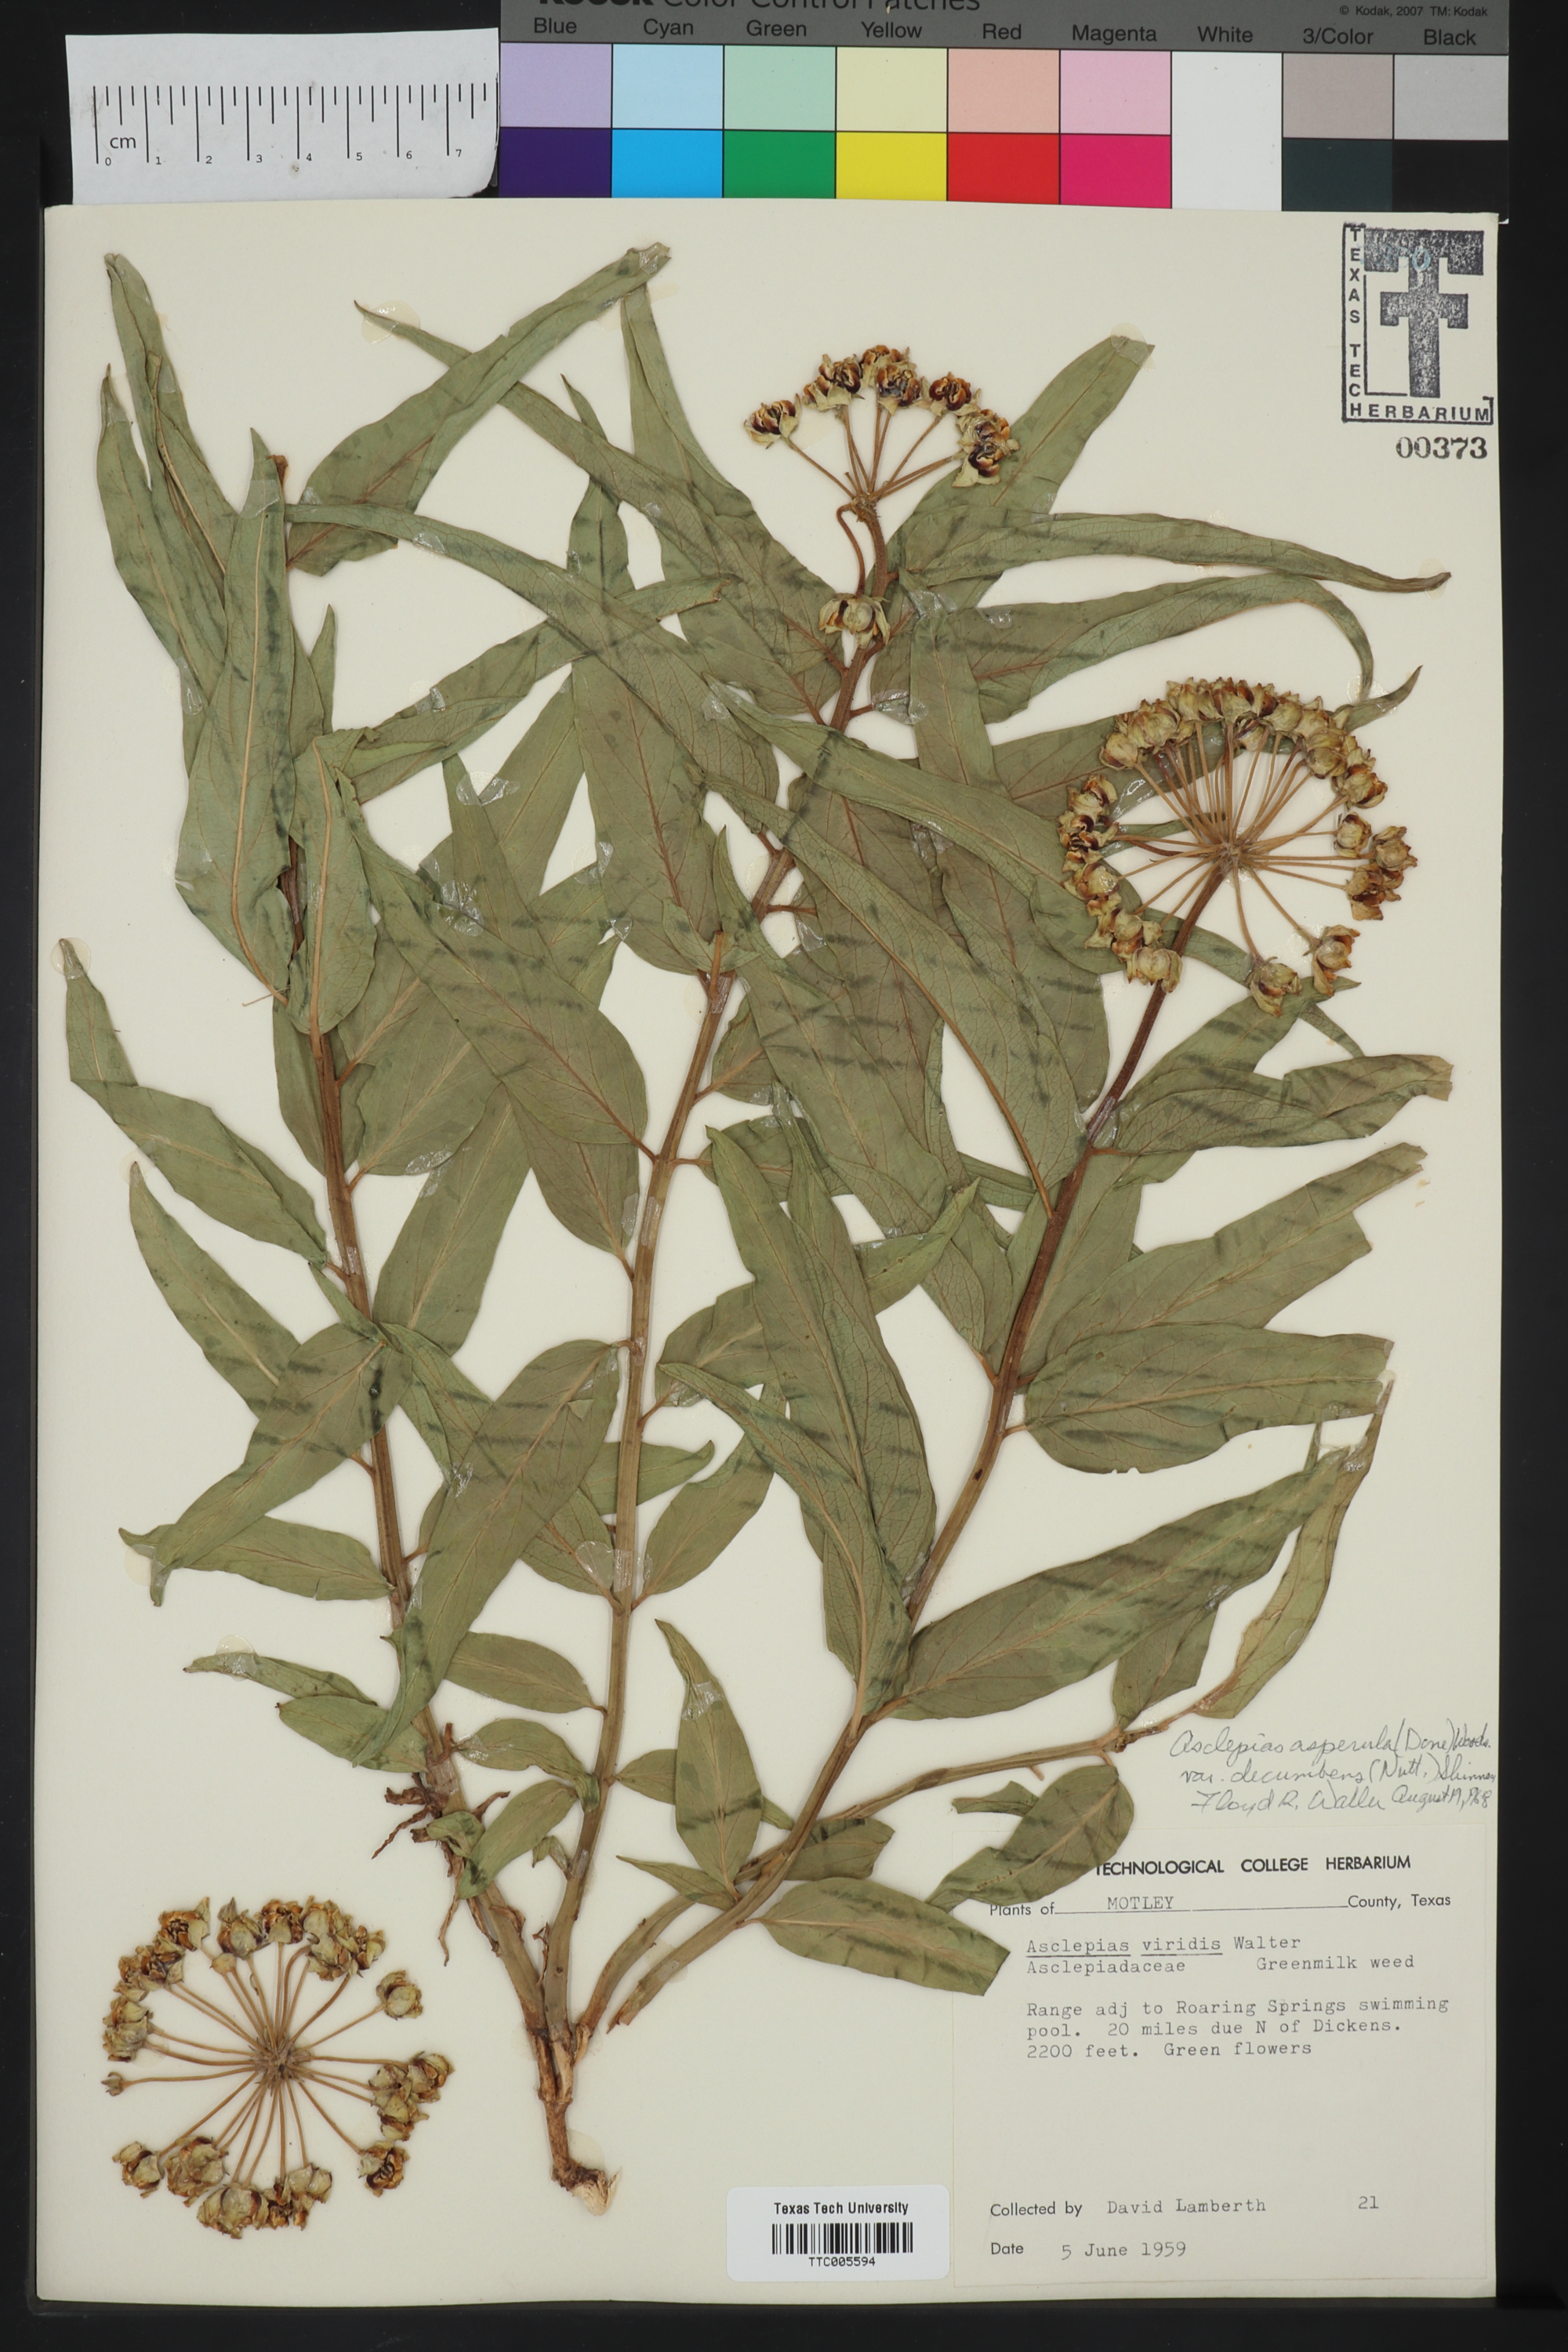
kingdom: Plantae
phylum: Tracheophyta
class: Magnoliopsida
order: Gentianales
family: Apocynaceae
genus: Asclepias
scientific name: Asclepias asperula
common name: Antelope horns
